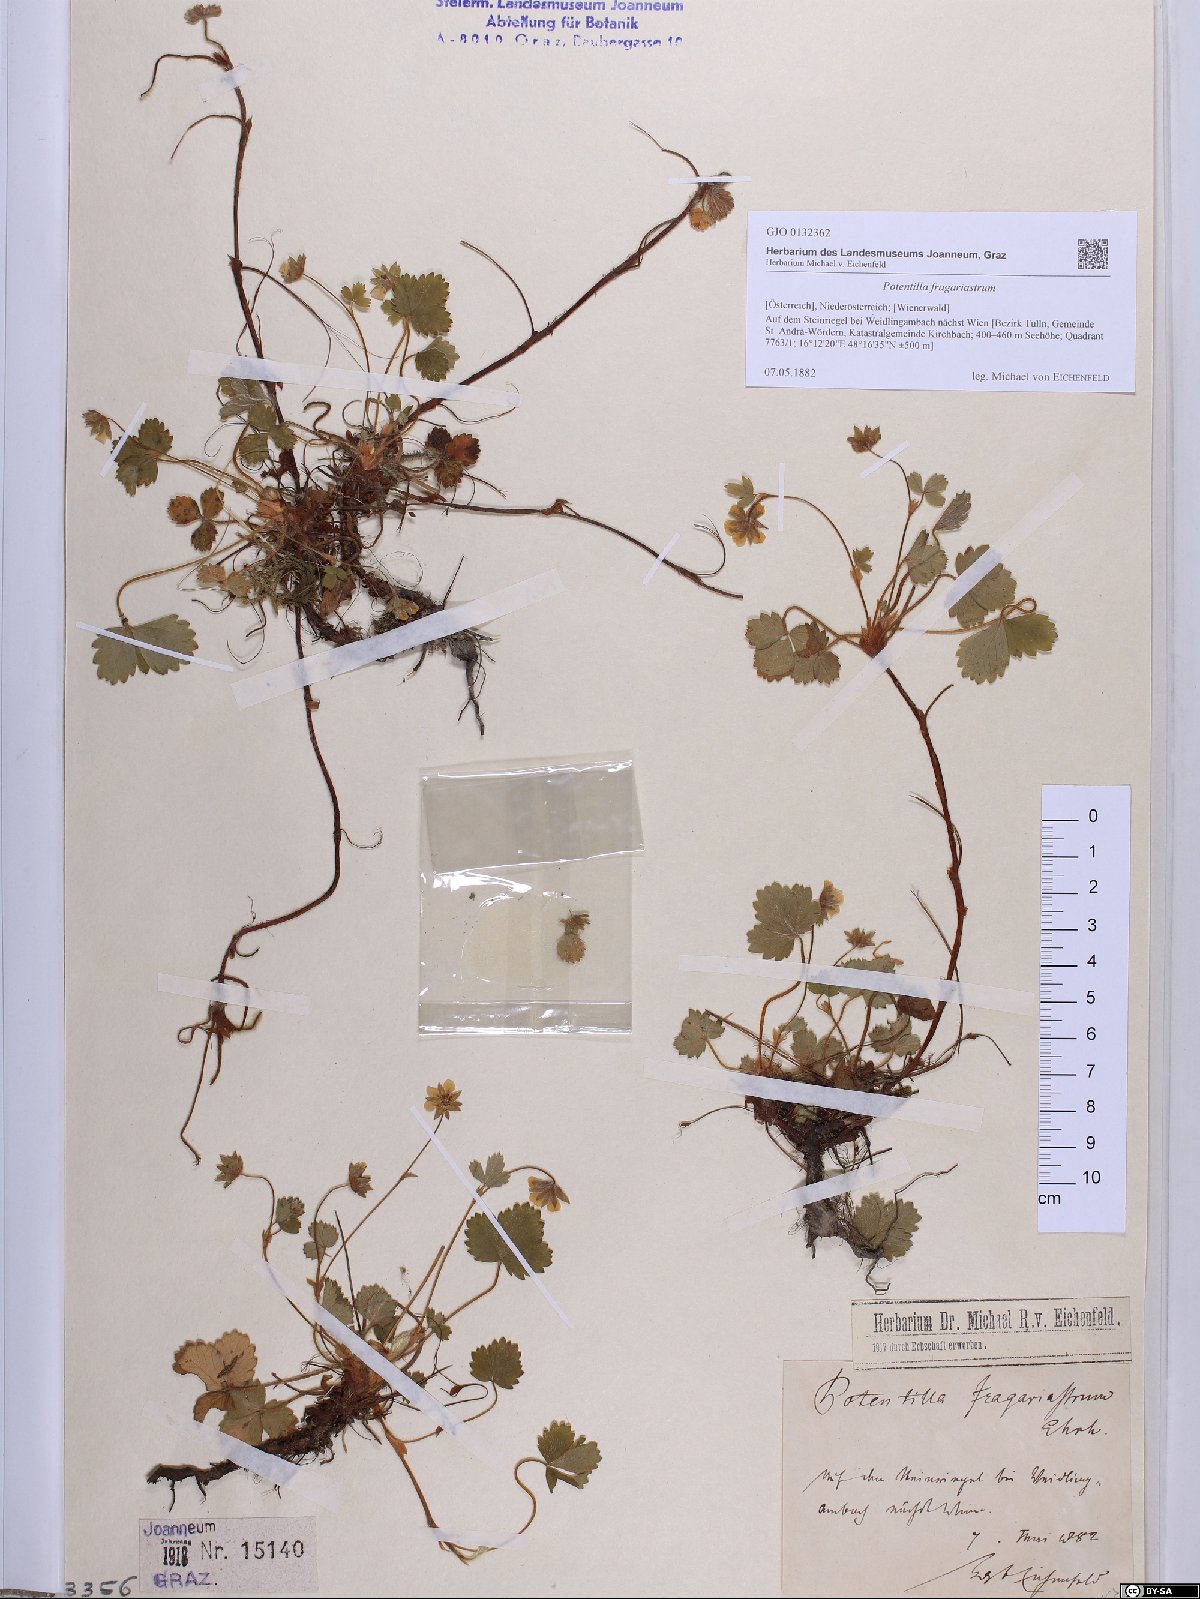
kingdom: Plantae
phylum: Tracheophyta
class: Magnoliopsida
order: Rosales
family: Rosaceae
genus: Potentilla
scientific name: Potentilla sterilis
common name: Barren strawberry
